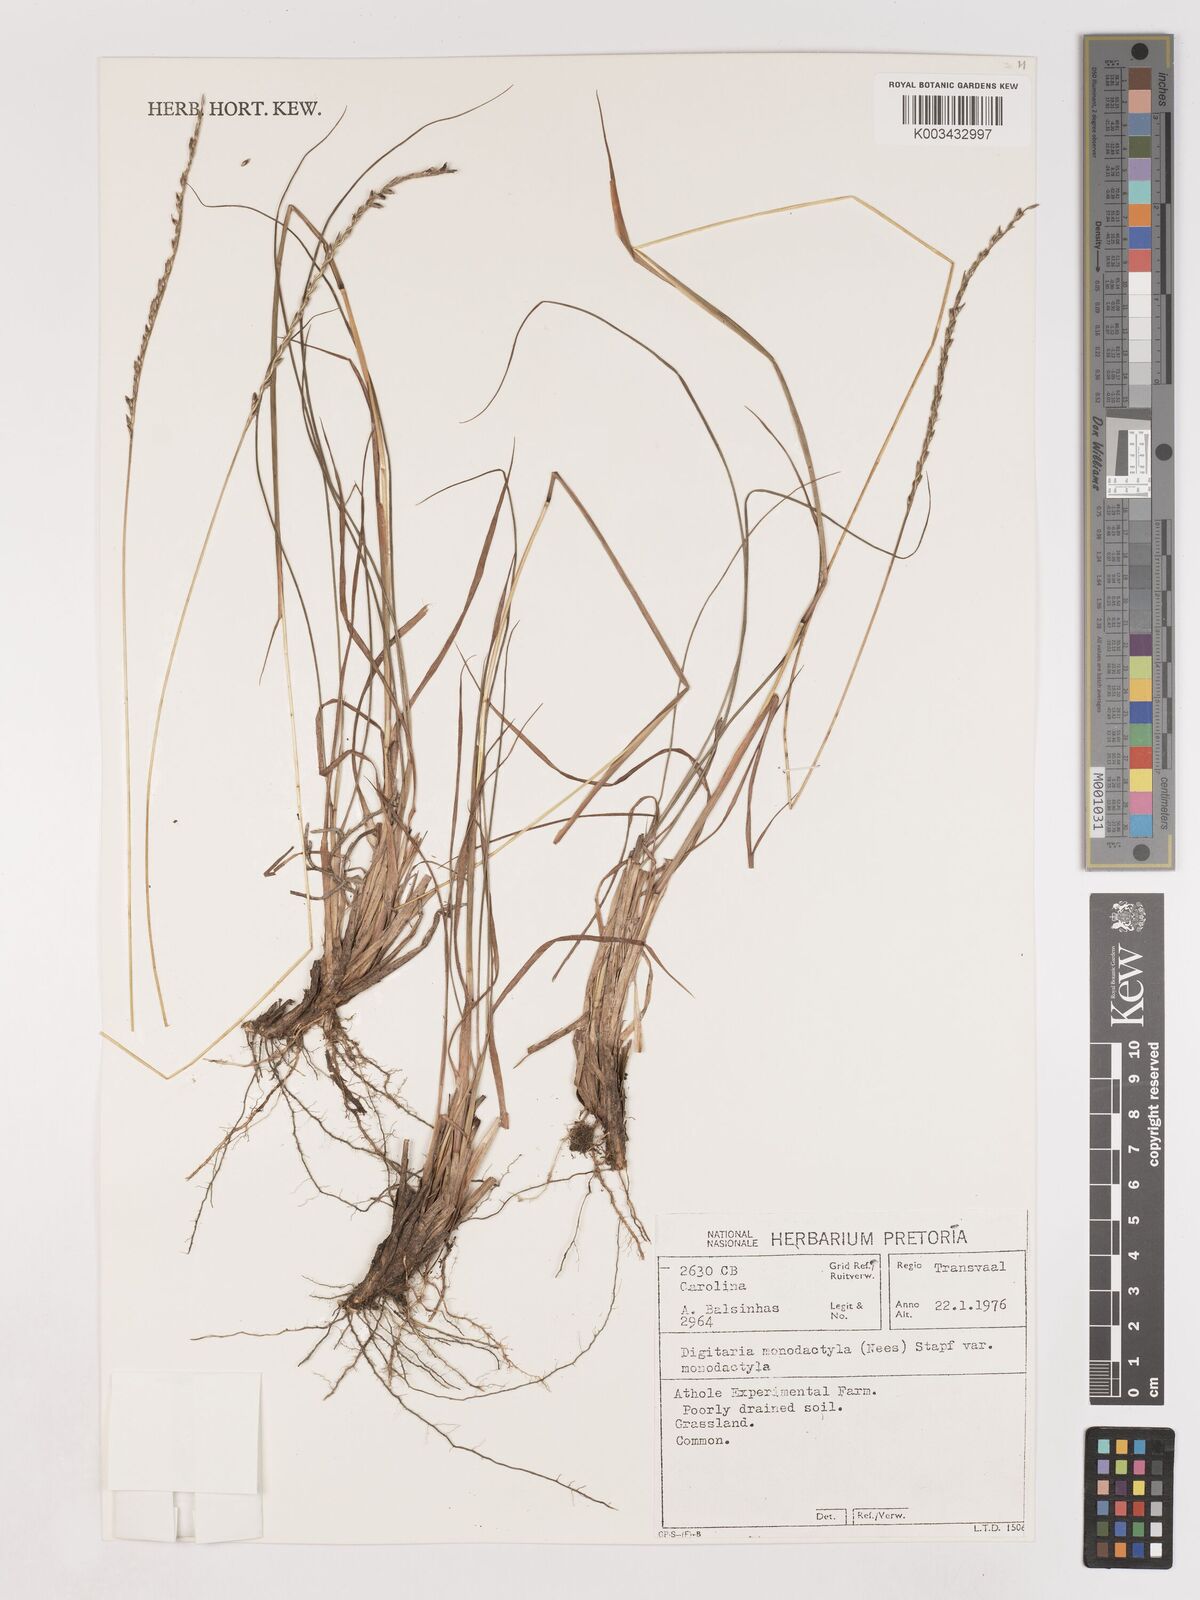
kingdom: Plantae
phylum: Tracheophyta
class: Liliopsida
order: Poales
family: Poaceae
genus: Digitaria
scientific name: Digitaria monodactyla
